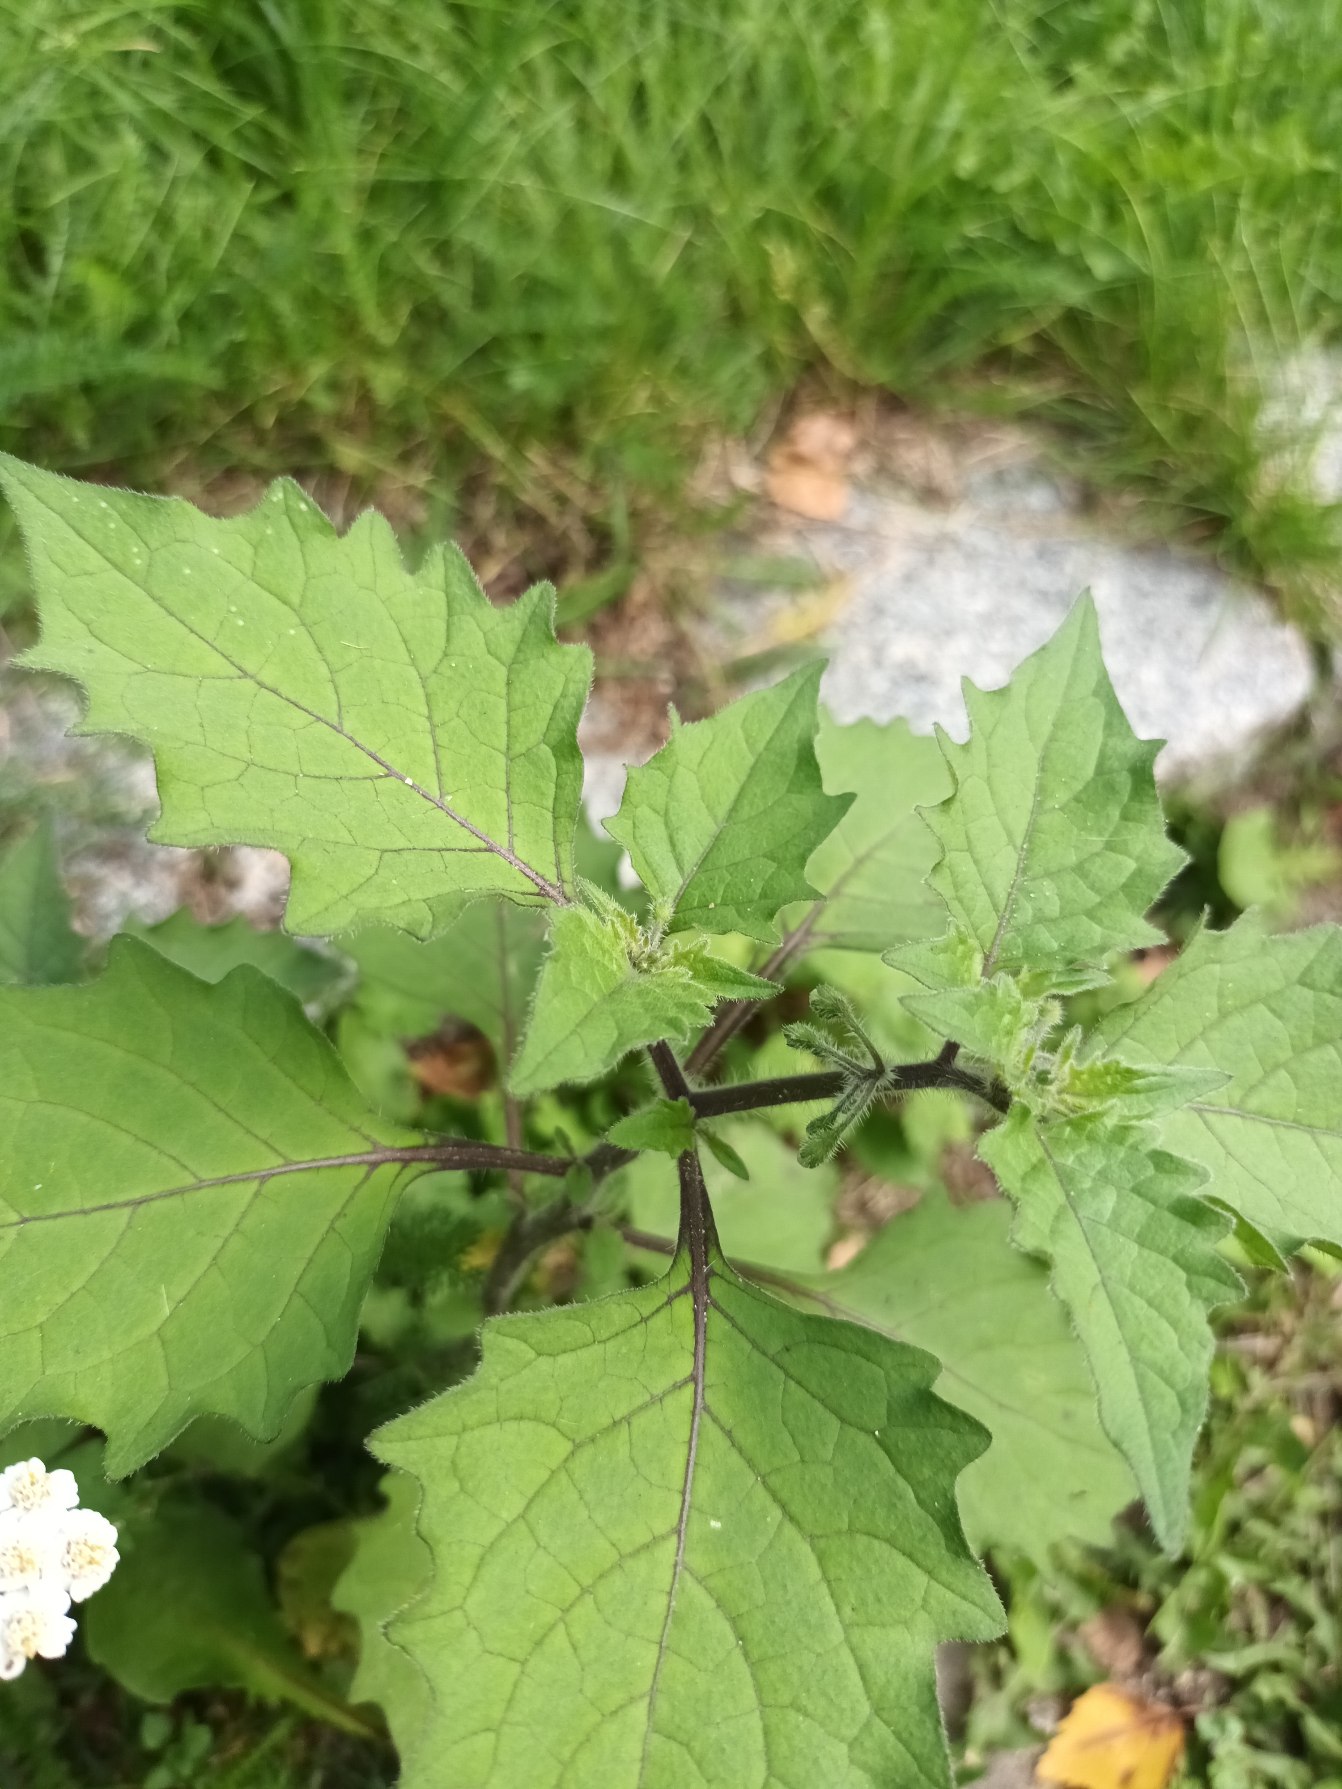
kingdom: Plantae
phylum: Tracheophyta
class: Magnoliopsida
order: Solanales
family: Solanaceae
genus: Solanum
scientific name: Solanum decipiens
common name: Kirtel-natskygge
